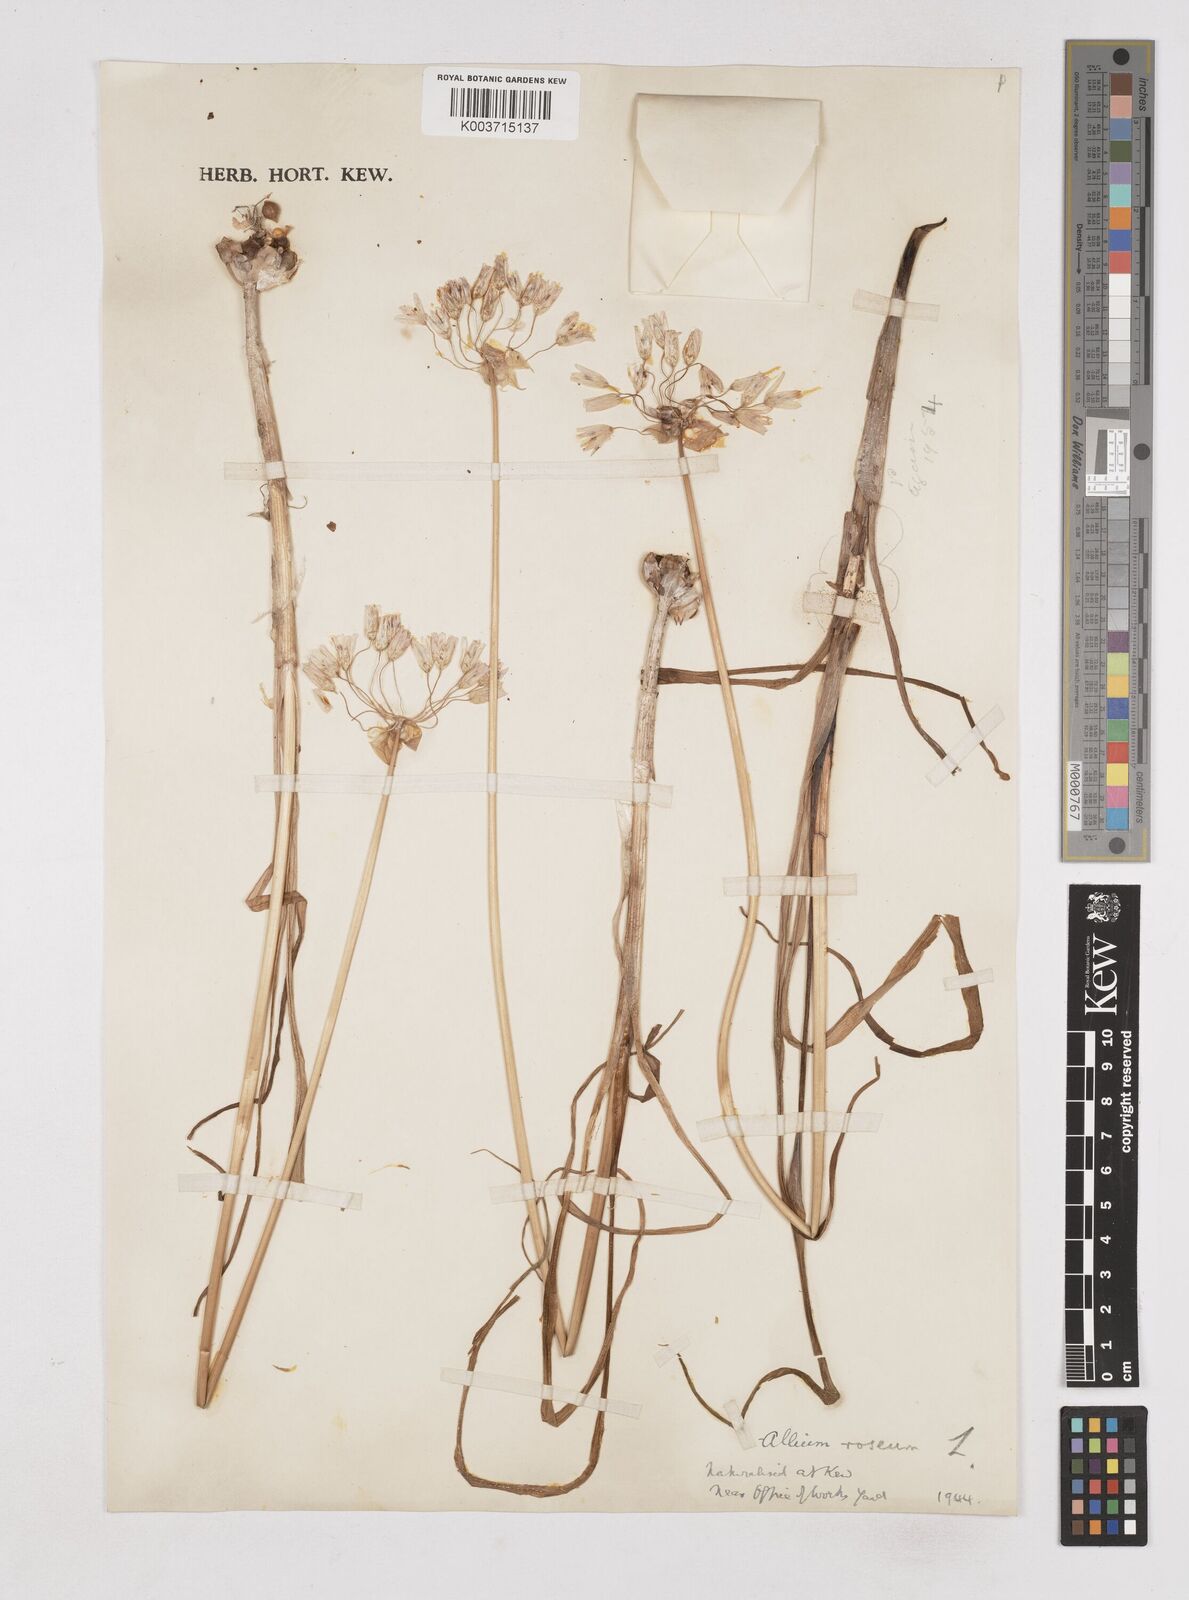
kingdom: Plantae
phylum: Tracheophyta
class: Liliopsida
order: Asparagales
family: Amaryllidaceae
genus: Allium
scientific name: Allium roseum
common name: Rosy garlic
